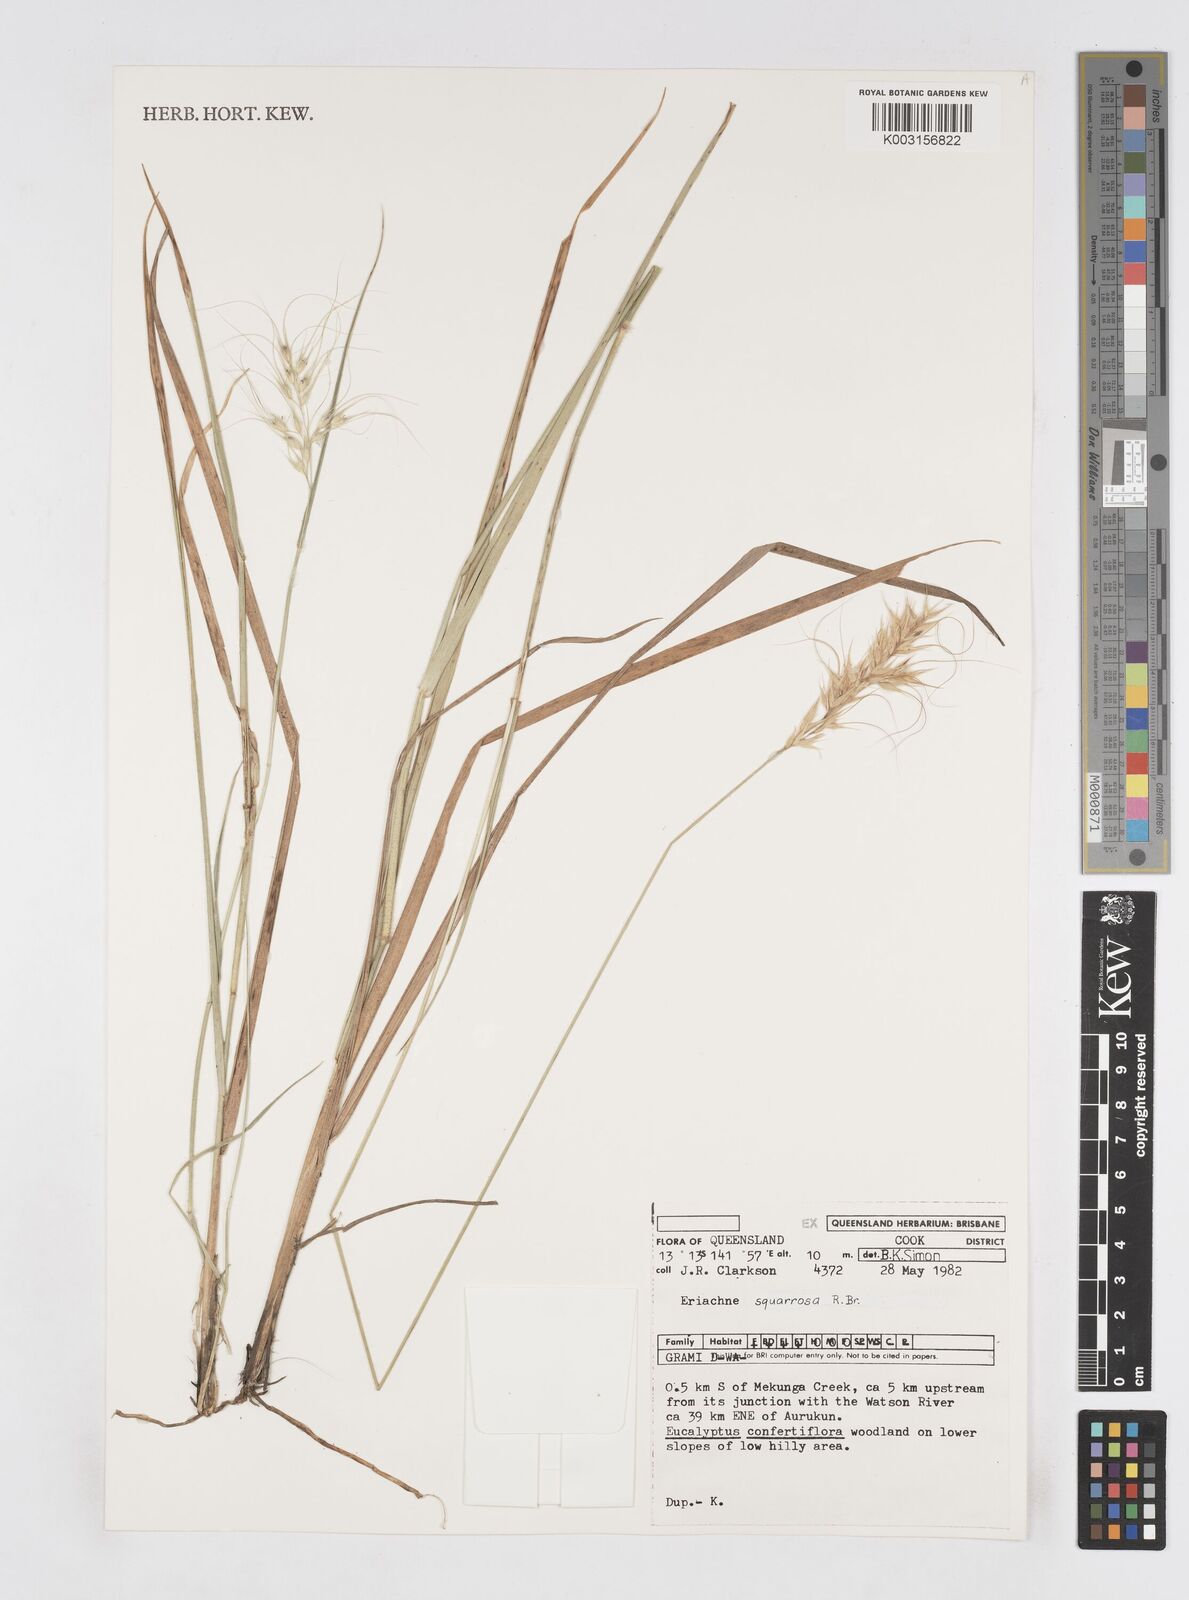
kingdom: Plantae
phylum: Tracheophyta
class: Liliopsida
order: Poales
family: Poaceae
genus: Eriachne
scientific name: Eriachne squarrosa
